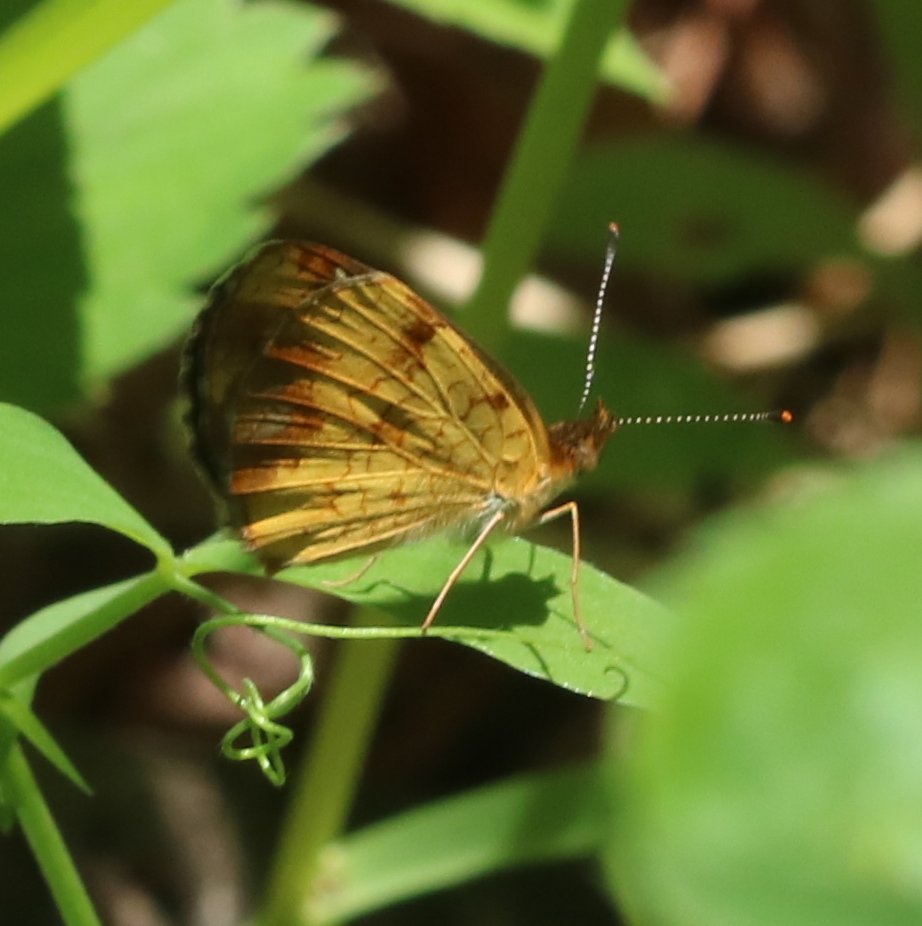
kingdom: Animalia
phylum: Arthropoda
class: Insecta
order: Lepidoptera
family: Nymphalidae
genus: Phyciodes
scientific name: Phyciodes tharos
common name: Northern Crescent
